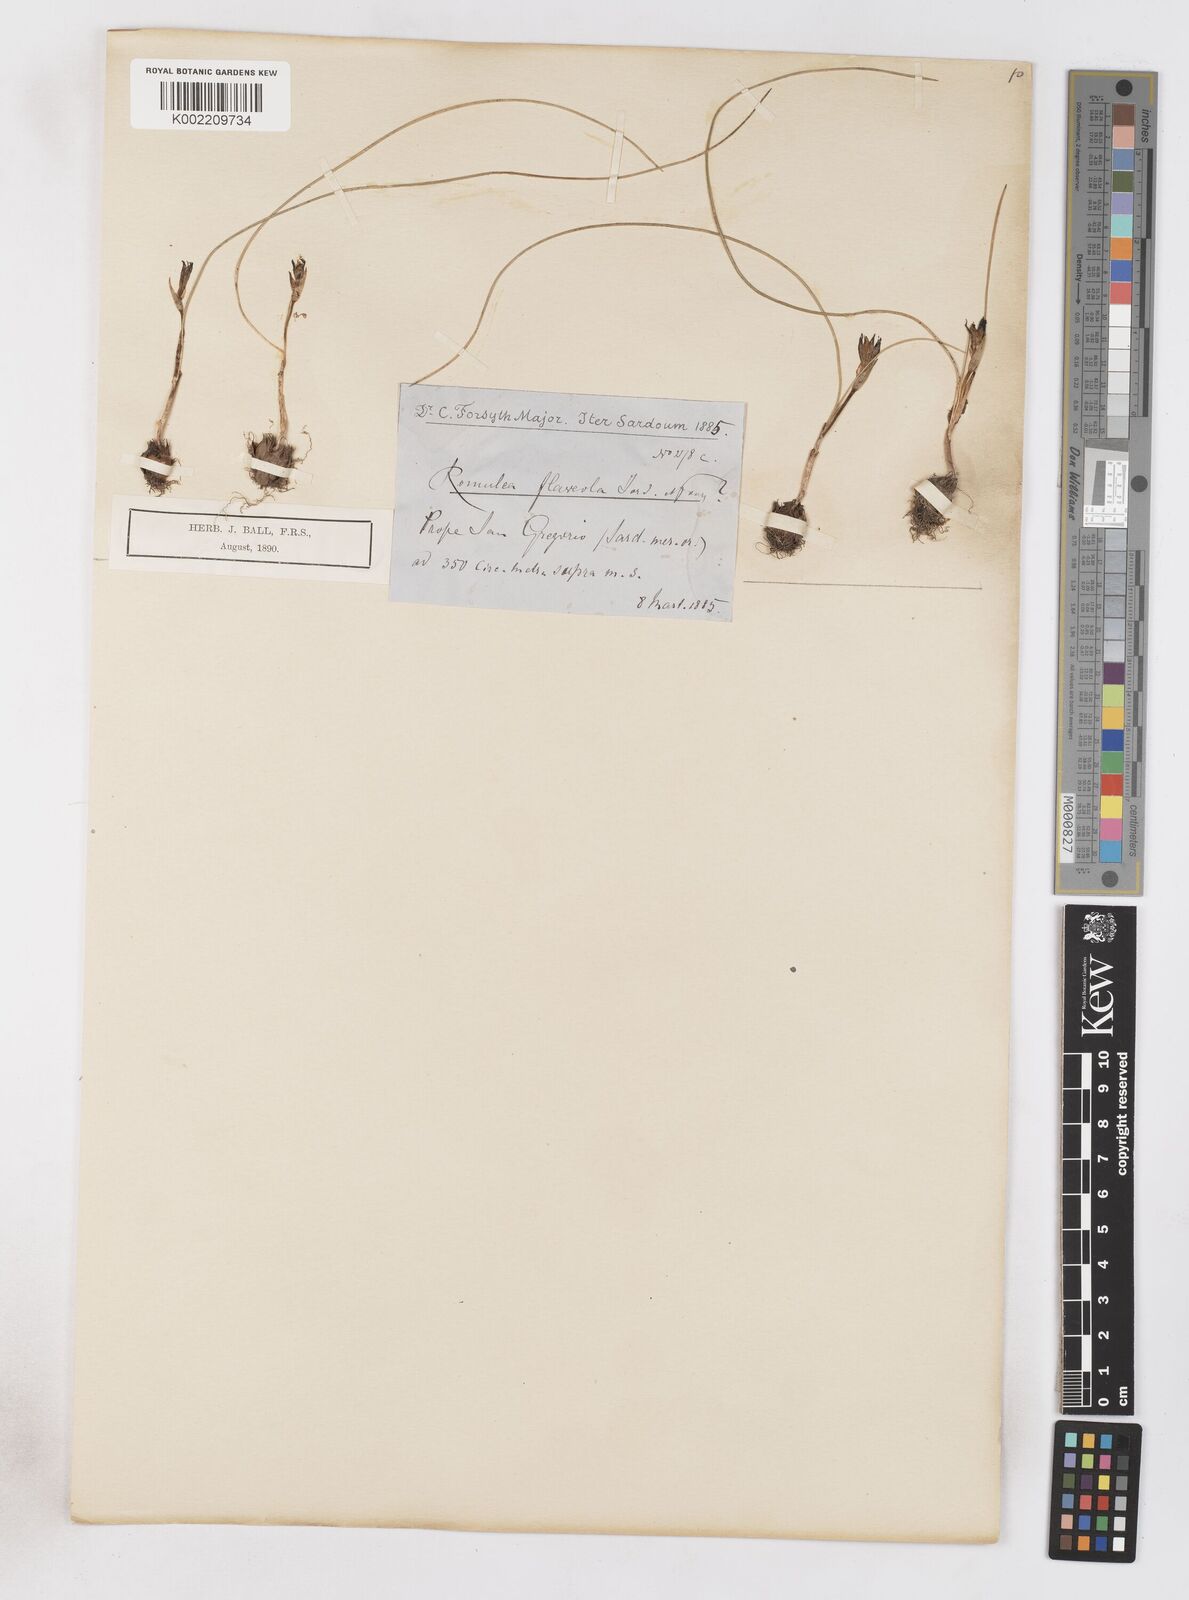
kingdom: Plantae
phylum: Tracheophyta
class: Liliopsida
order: Asparagales
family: Iridaceae
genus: Romulea
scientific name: Romulea columnae
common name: Sand-crocus
